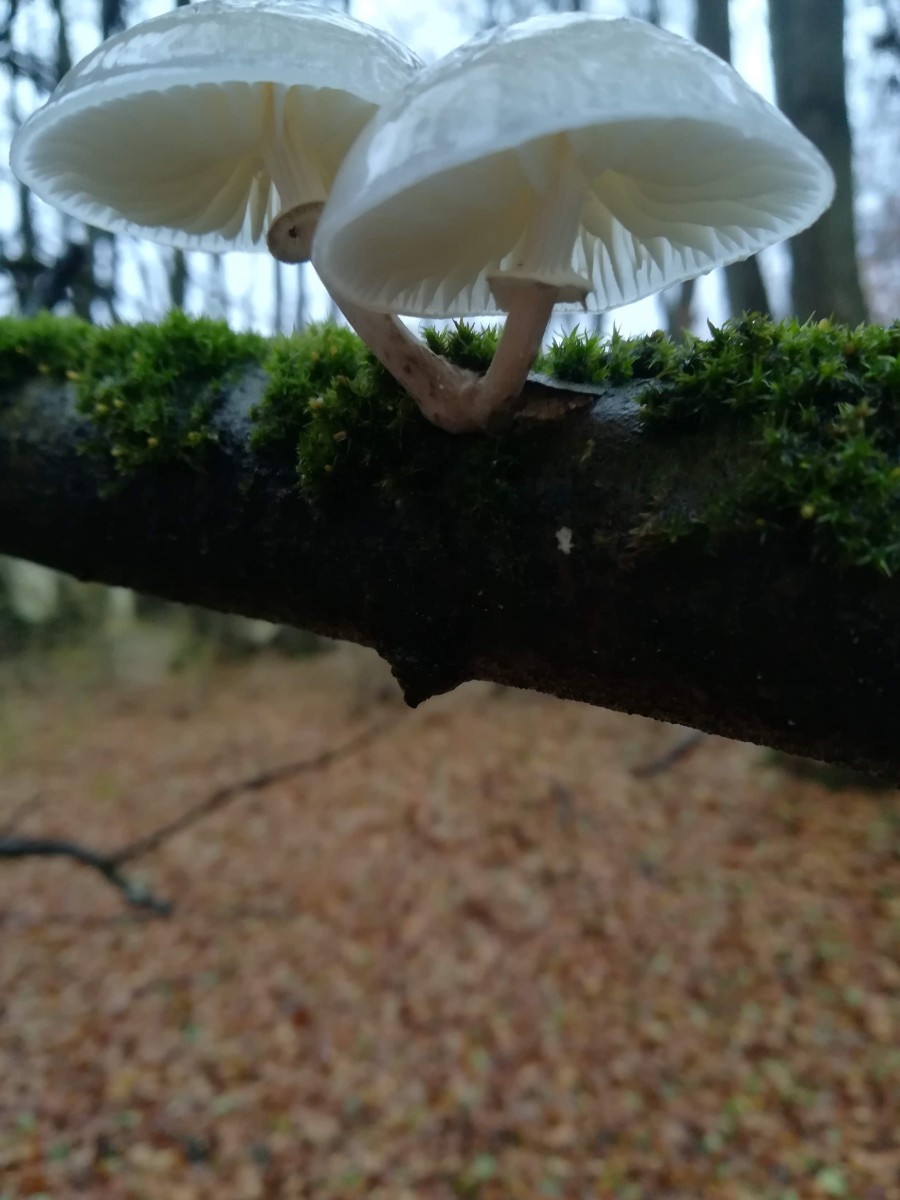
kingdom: Fungi
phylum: Basidiomycota
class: Agaricomycetes
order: Agaricales
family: Physalacriaceae
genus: Mucidula
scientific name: Mucidula mucida
